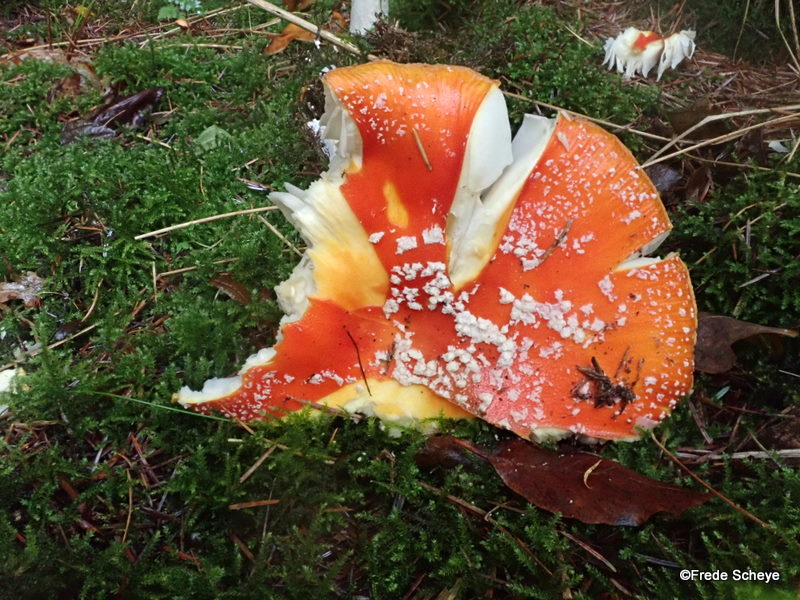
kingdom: Fungi
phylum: Basidiomycota
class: Agaricomycetes
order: Agaricales
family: Amanitaceae
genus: Amanita
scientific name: Amanita muscaria
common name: rød fluesvamp
